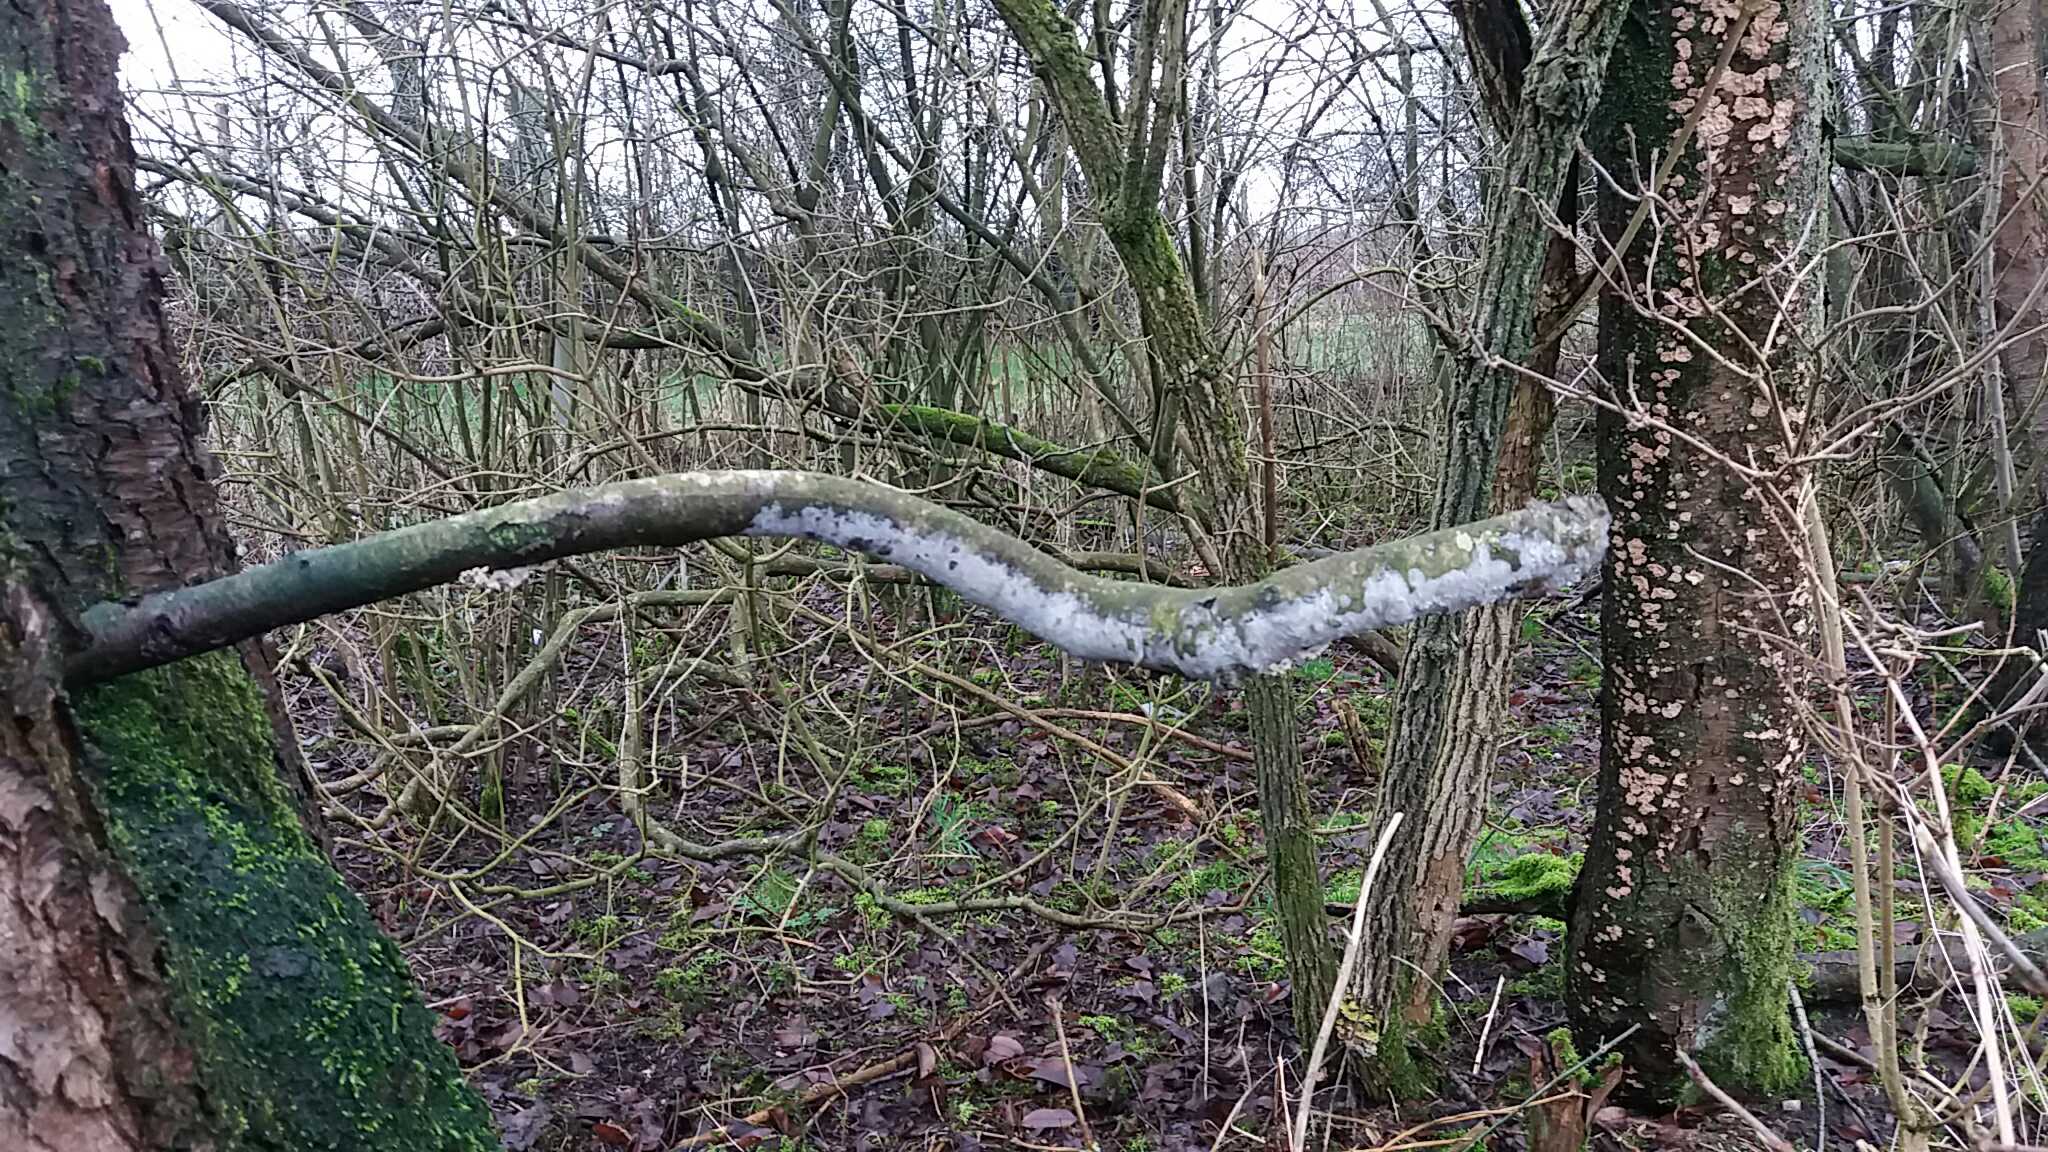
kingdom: Fungi
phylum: Basidiomycota
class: Agaricomycetes
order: Corticiales
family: Corticiaceae
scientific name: Corticiaceae
